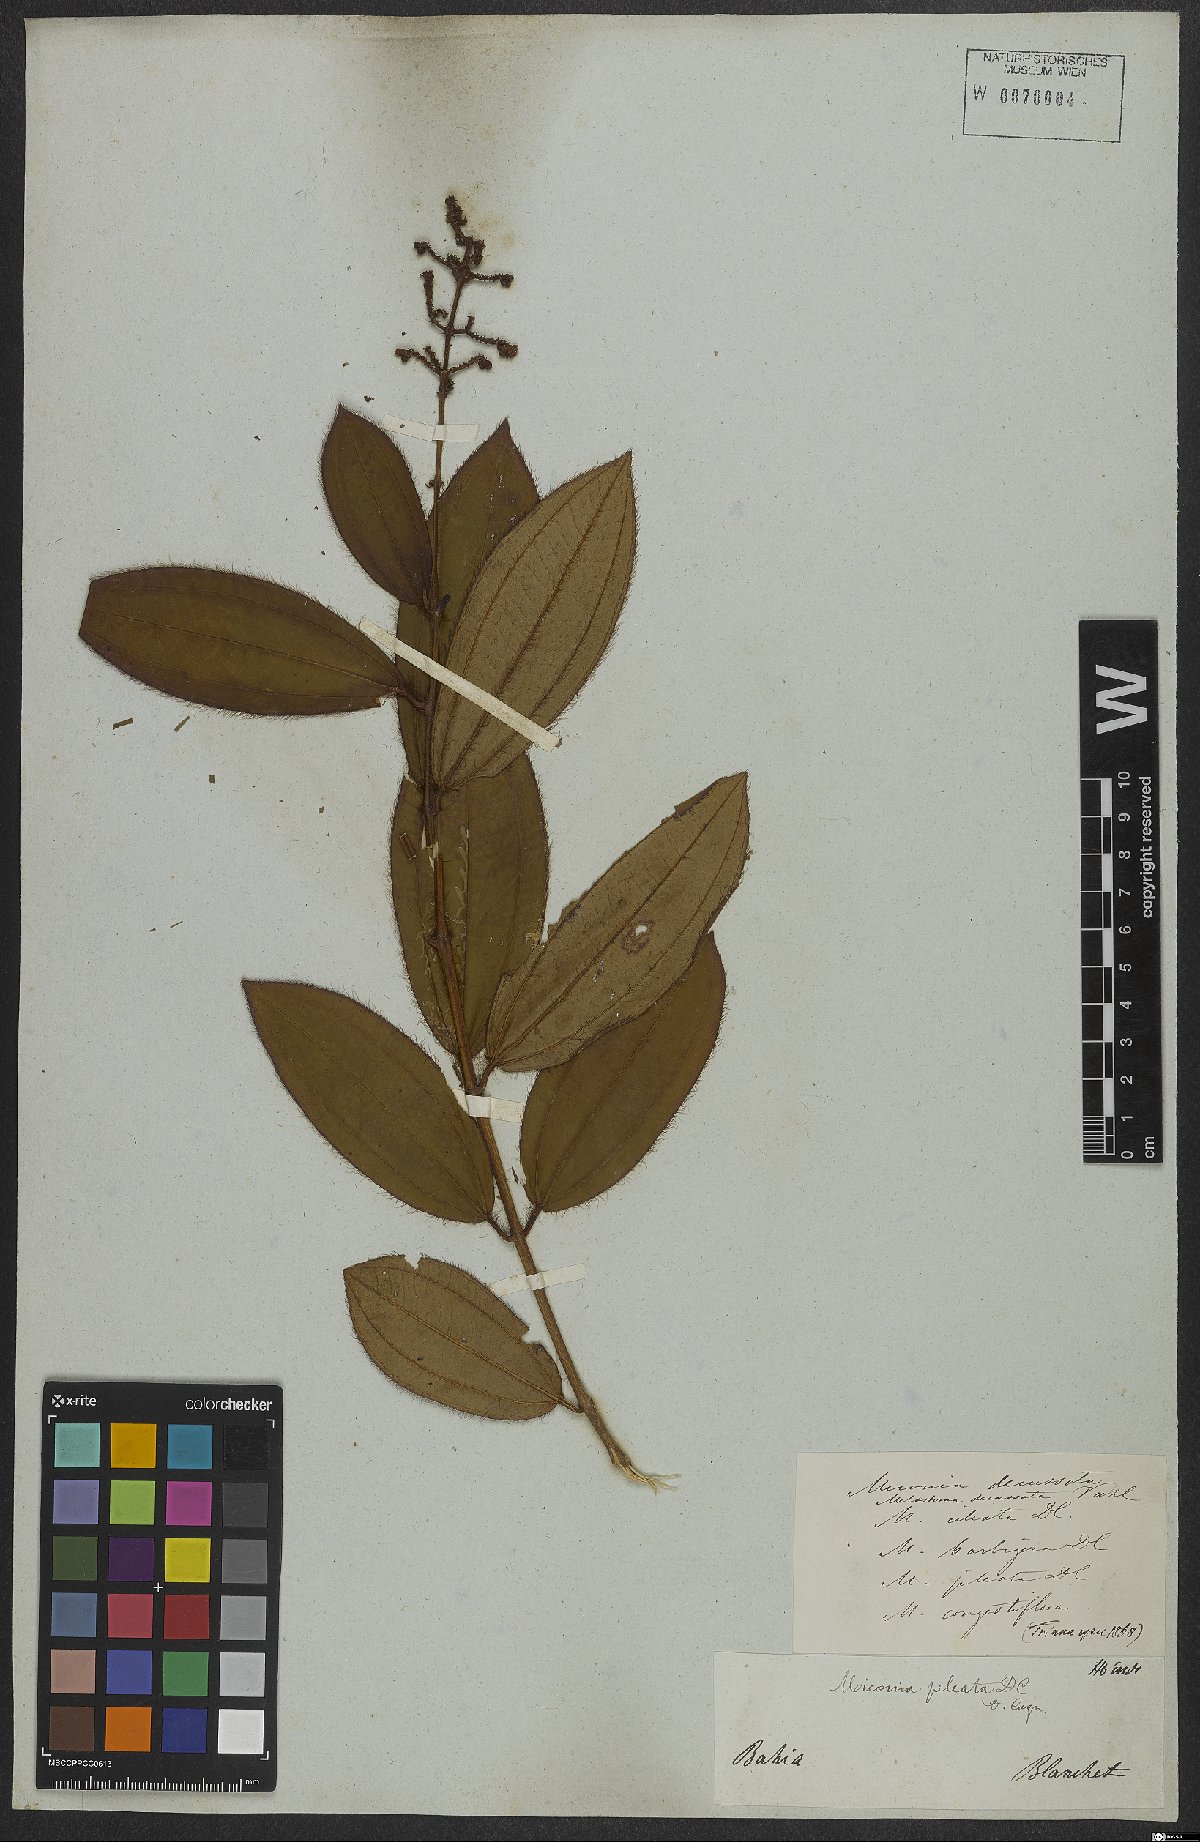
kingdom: Plantae
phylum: Tracheophyta
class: Magnoliopsida
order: Myrtales
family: Melastomataceae
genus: Miconia
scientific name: Miconia pileata
